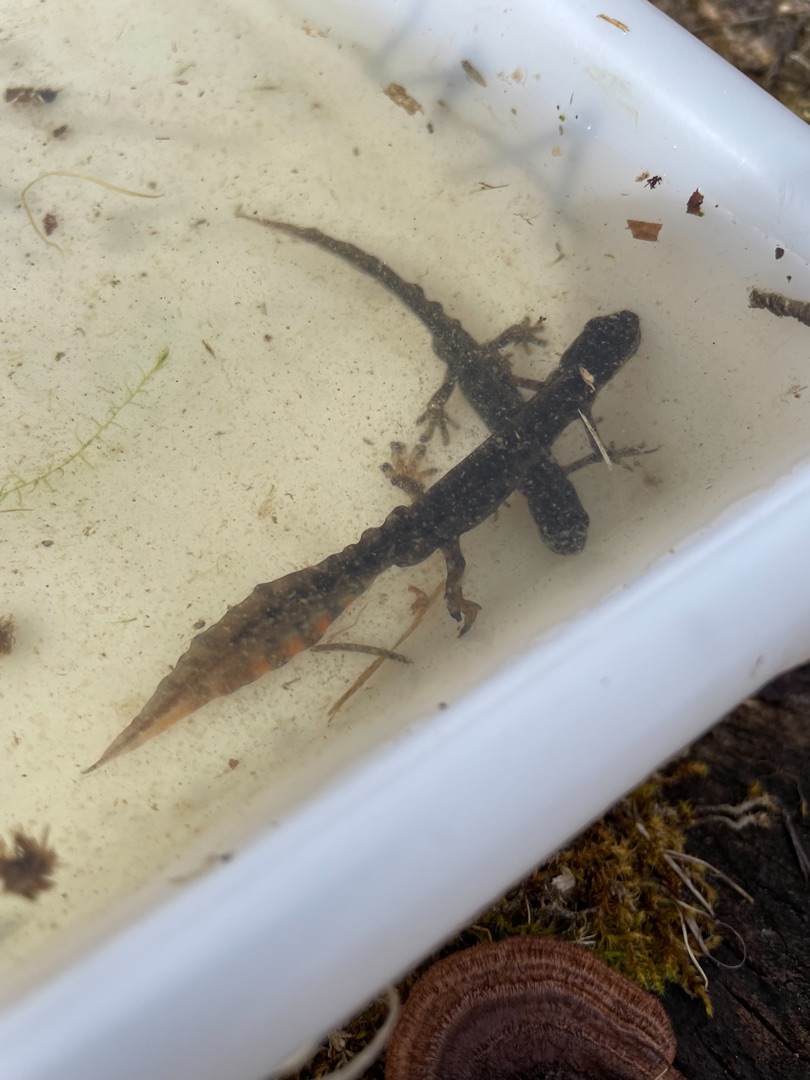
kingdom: Animalia
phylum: Chordata
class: Amphibia
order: Caudata
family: Salamandridae
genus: Lissotriton
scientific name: Lissotriton vulgaris
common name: Lille vandsalamander
